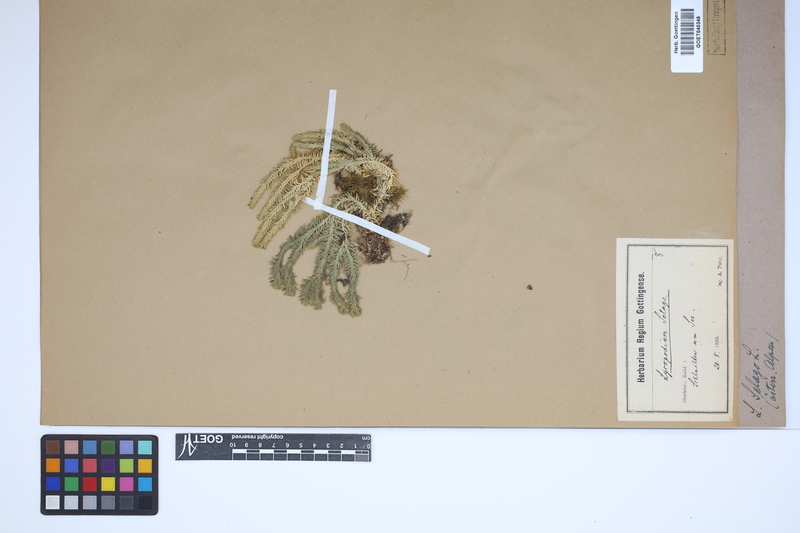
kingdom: Plantae
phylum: Tracheophyta
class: Lycopodiopsida
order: Lycopodiales
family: Lycopodiaceae
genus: Huperzia
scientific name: Huperzia selago
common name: Northern firmoss
